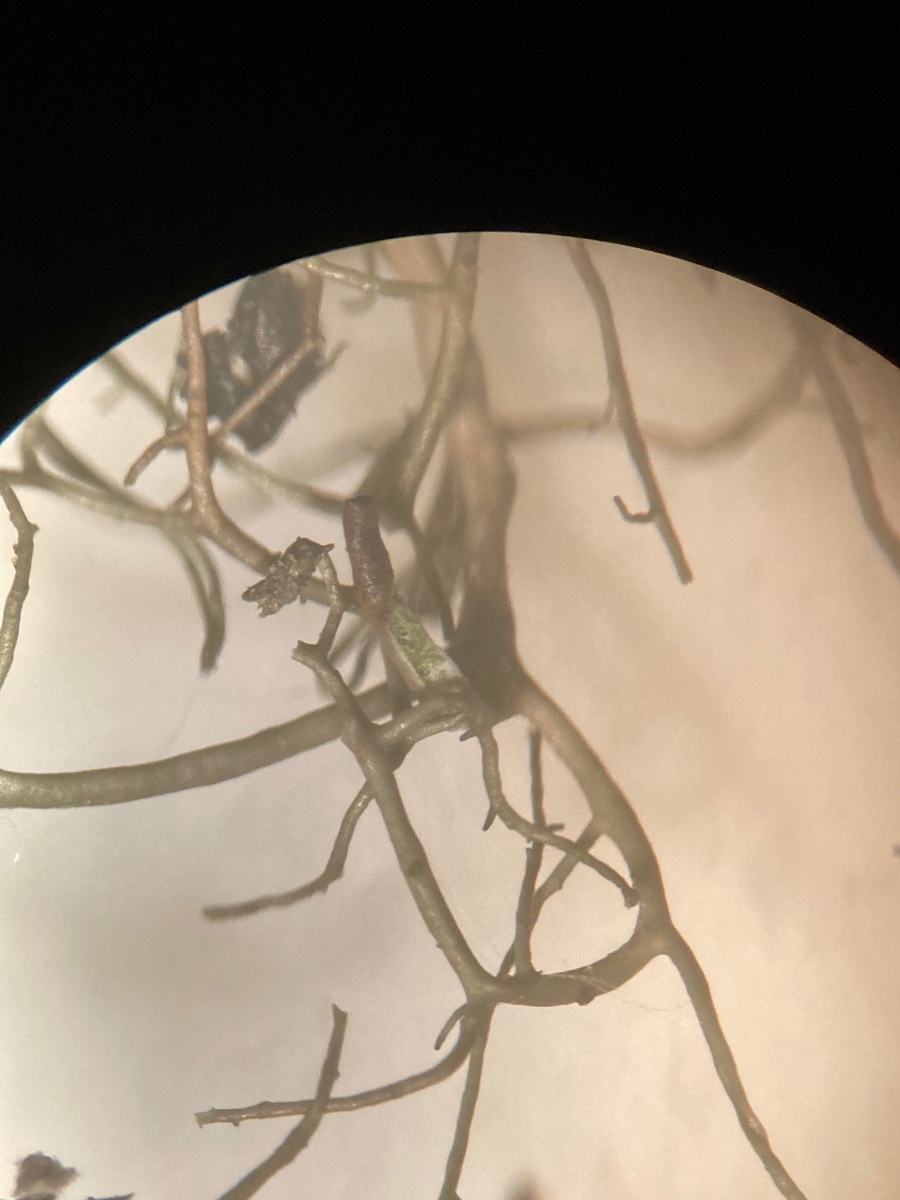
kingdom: Fungi
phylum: Ascomycota
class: Lecanoromycetes
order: Lecanorales
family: Parmeliaceae
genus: Bryoria
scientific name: Bryoria
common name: almindelig mankelav
